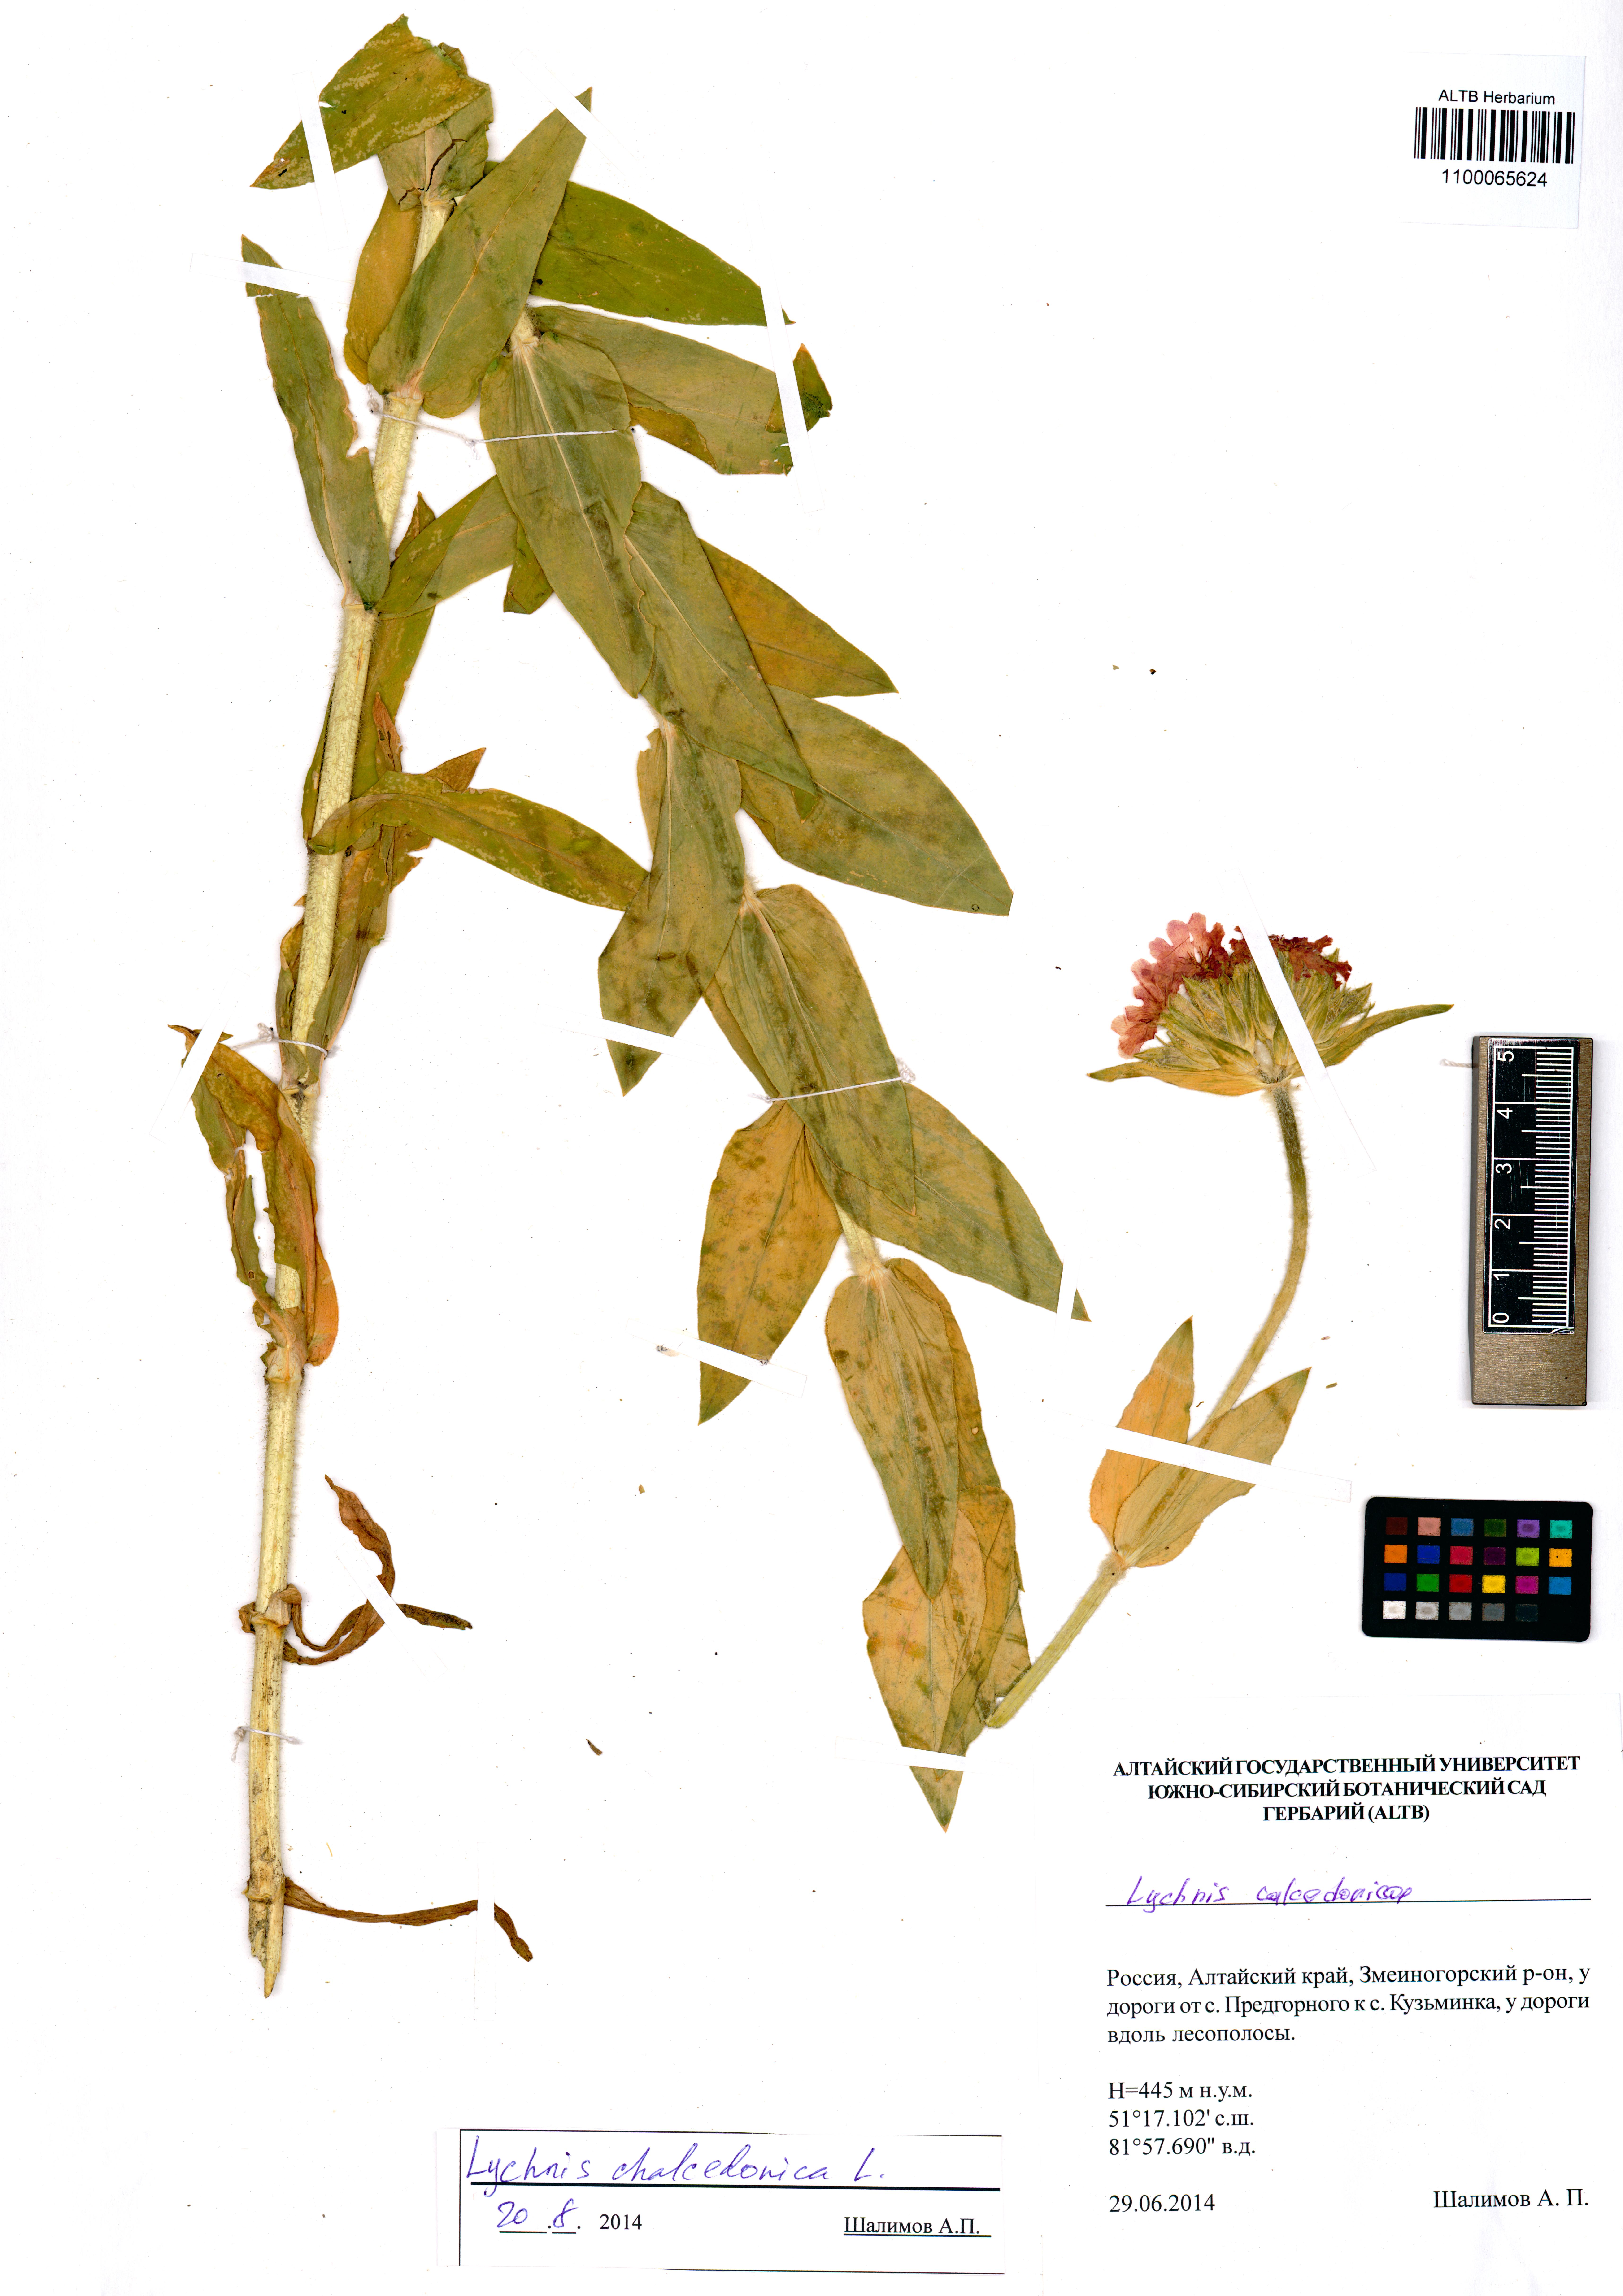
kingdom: Plantae
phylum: Tracheophyta
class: Magnoliopsida
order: Caryophyllales
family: Caryophyllaceae
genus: Silene
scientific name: Silene chalcedonica
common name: Maltese-cross
